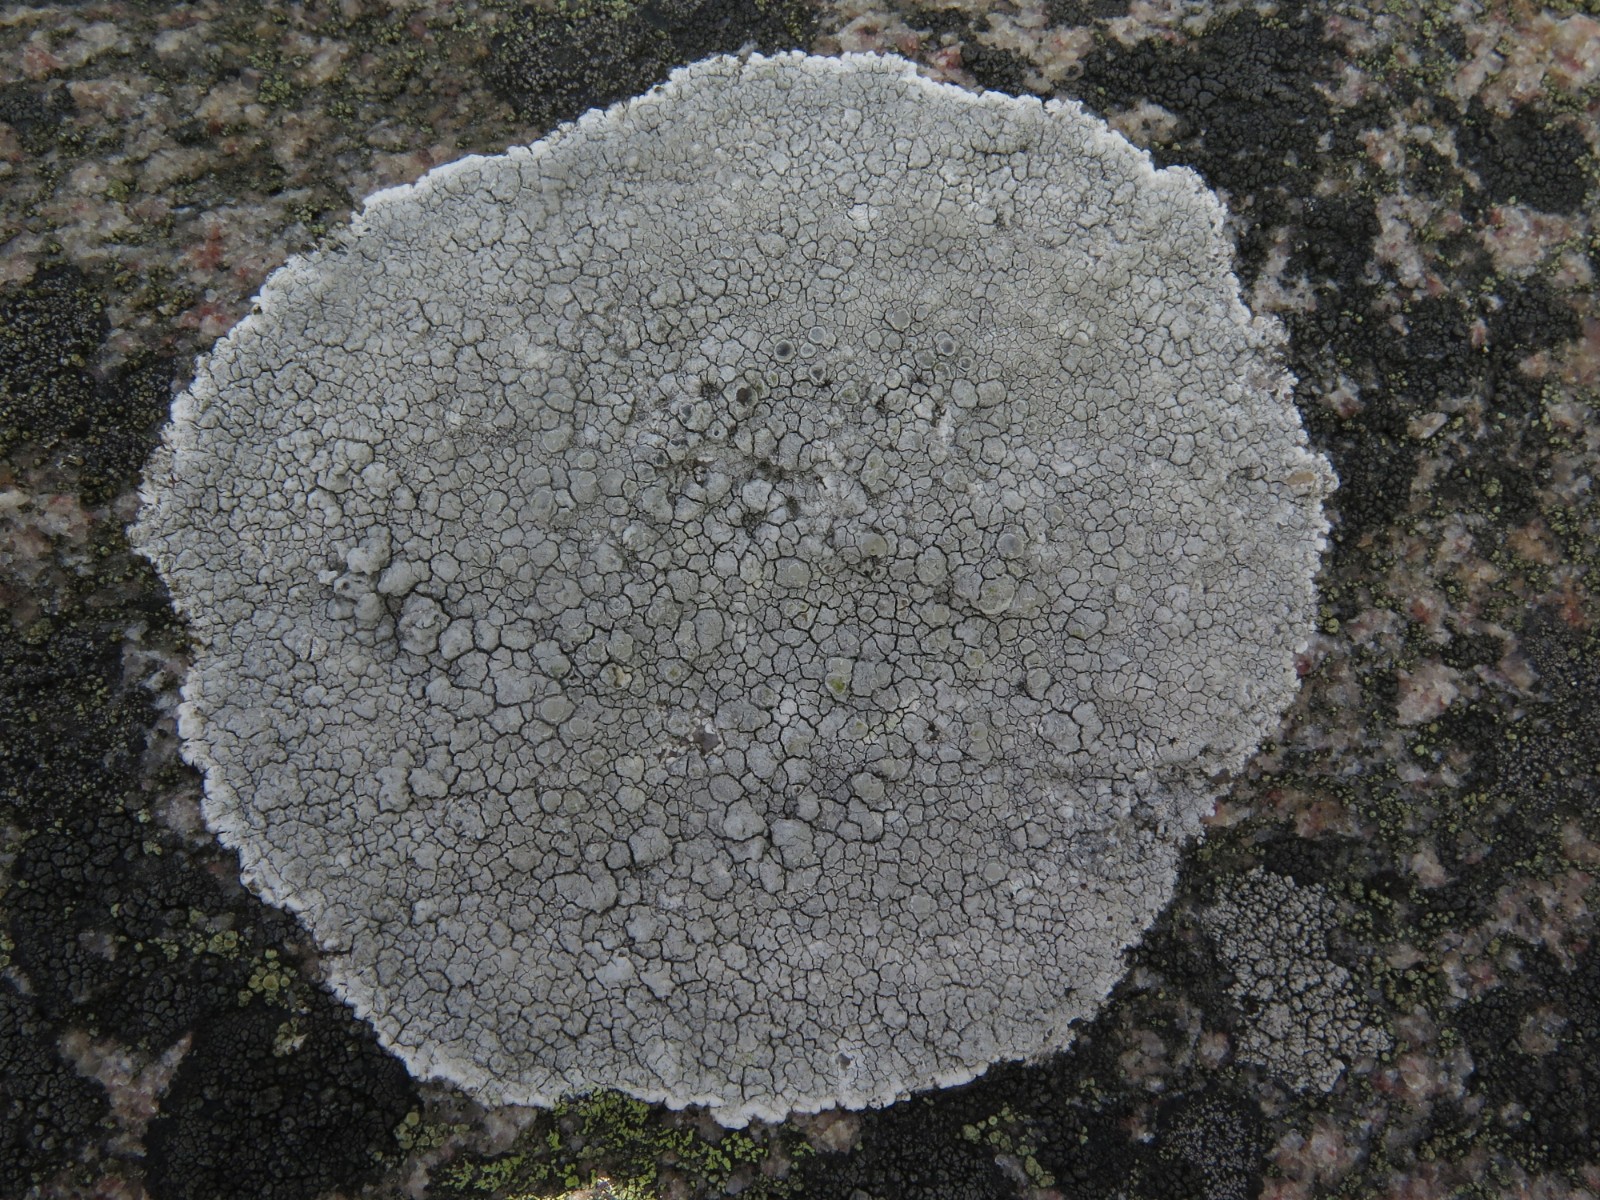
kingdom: Fungi
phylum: Ascomycota
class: Lecanoromycetes
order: Lecanorales
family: Lecanoraceae
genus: Glaucomaria
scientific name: Glaucomaria rupicola
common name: stengærde-kantskivelav
